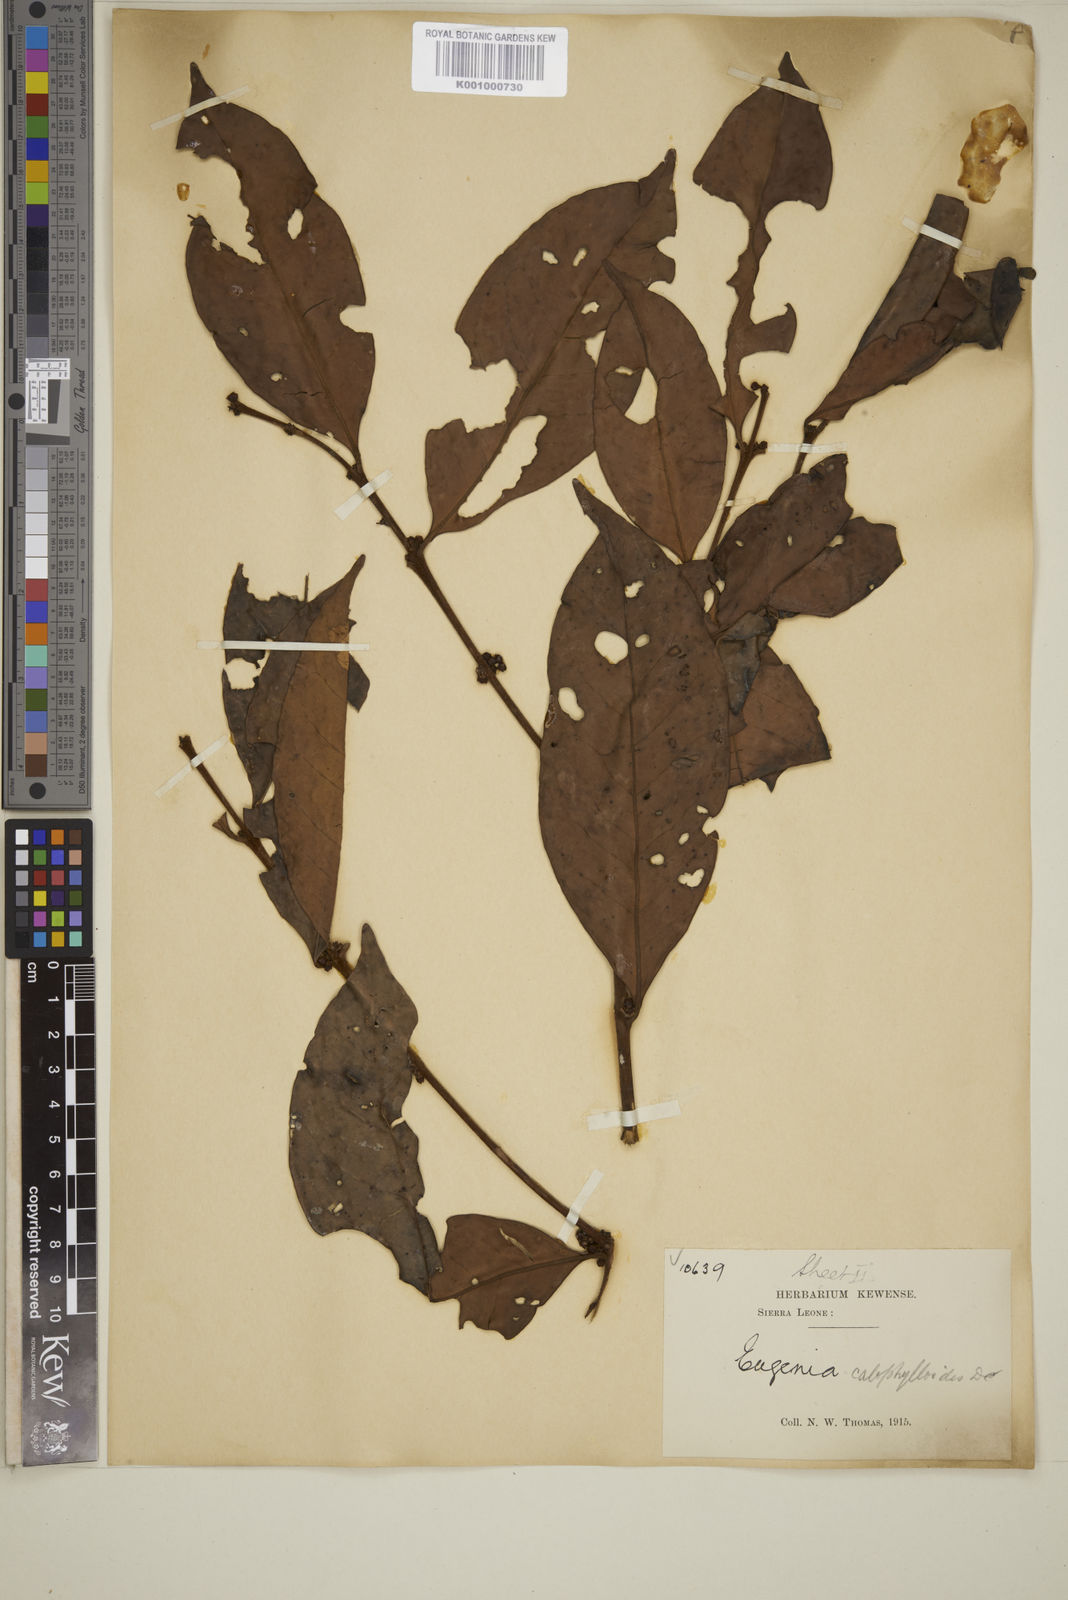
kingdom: Plantae
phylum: Tracheophyta
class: Magnoliopsida
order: Myrtales
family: Myrtaceae
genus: Eugenia
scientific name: Eugenia calophylloides
